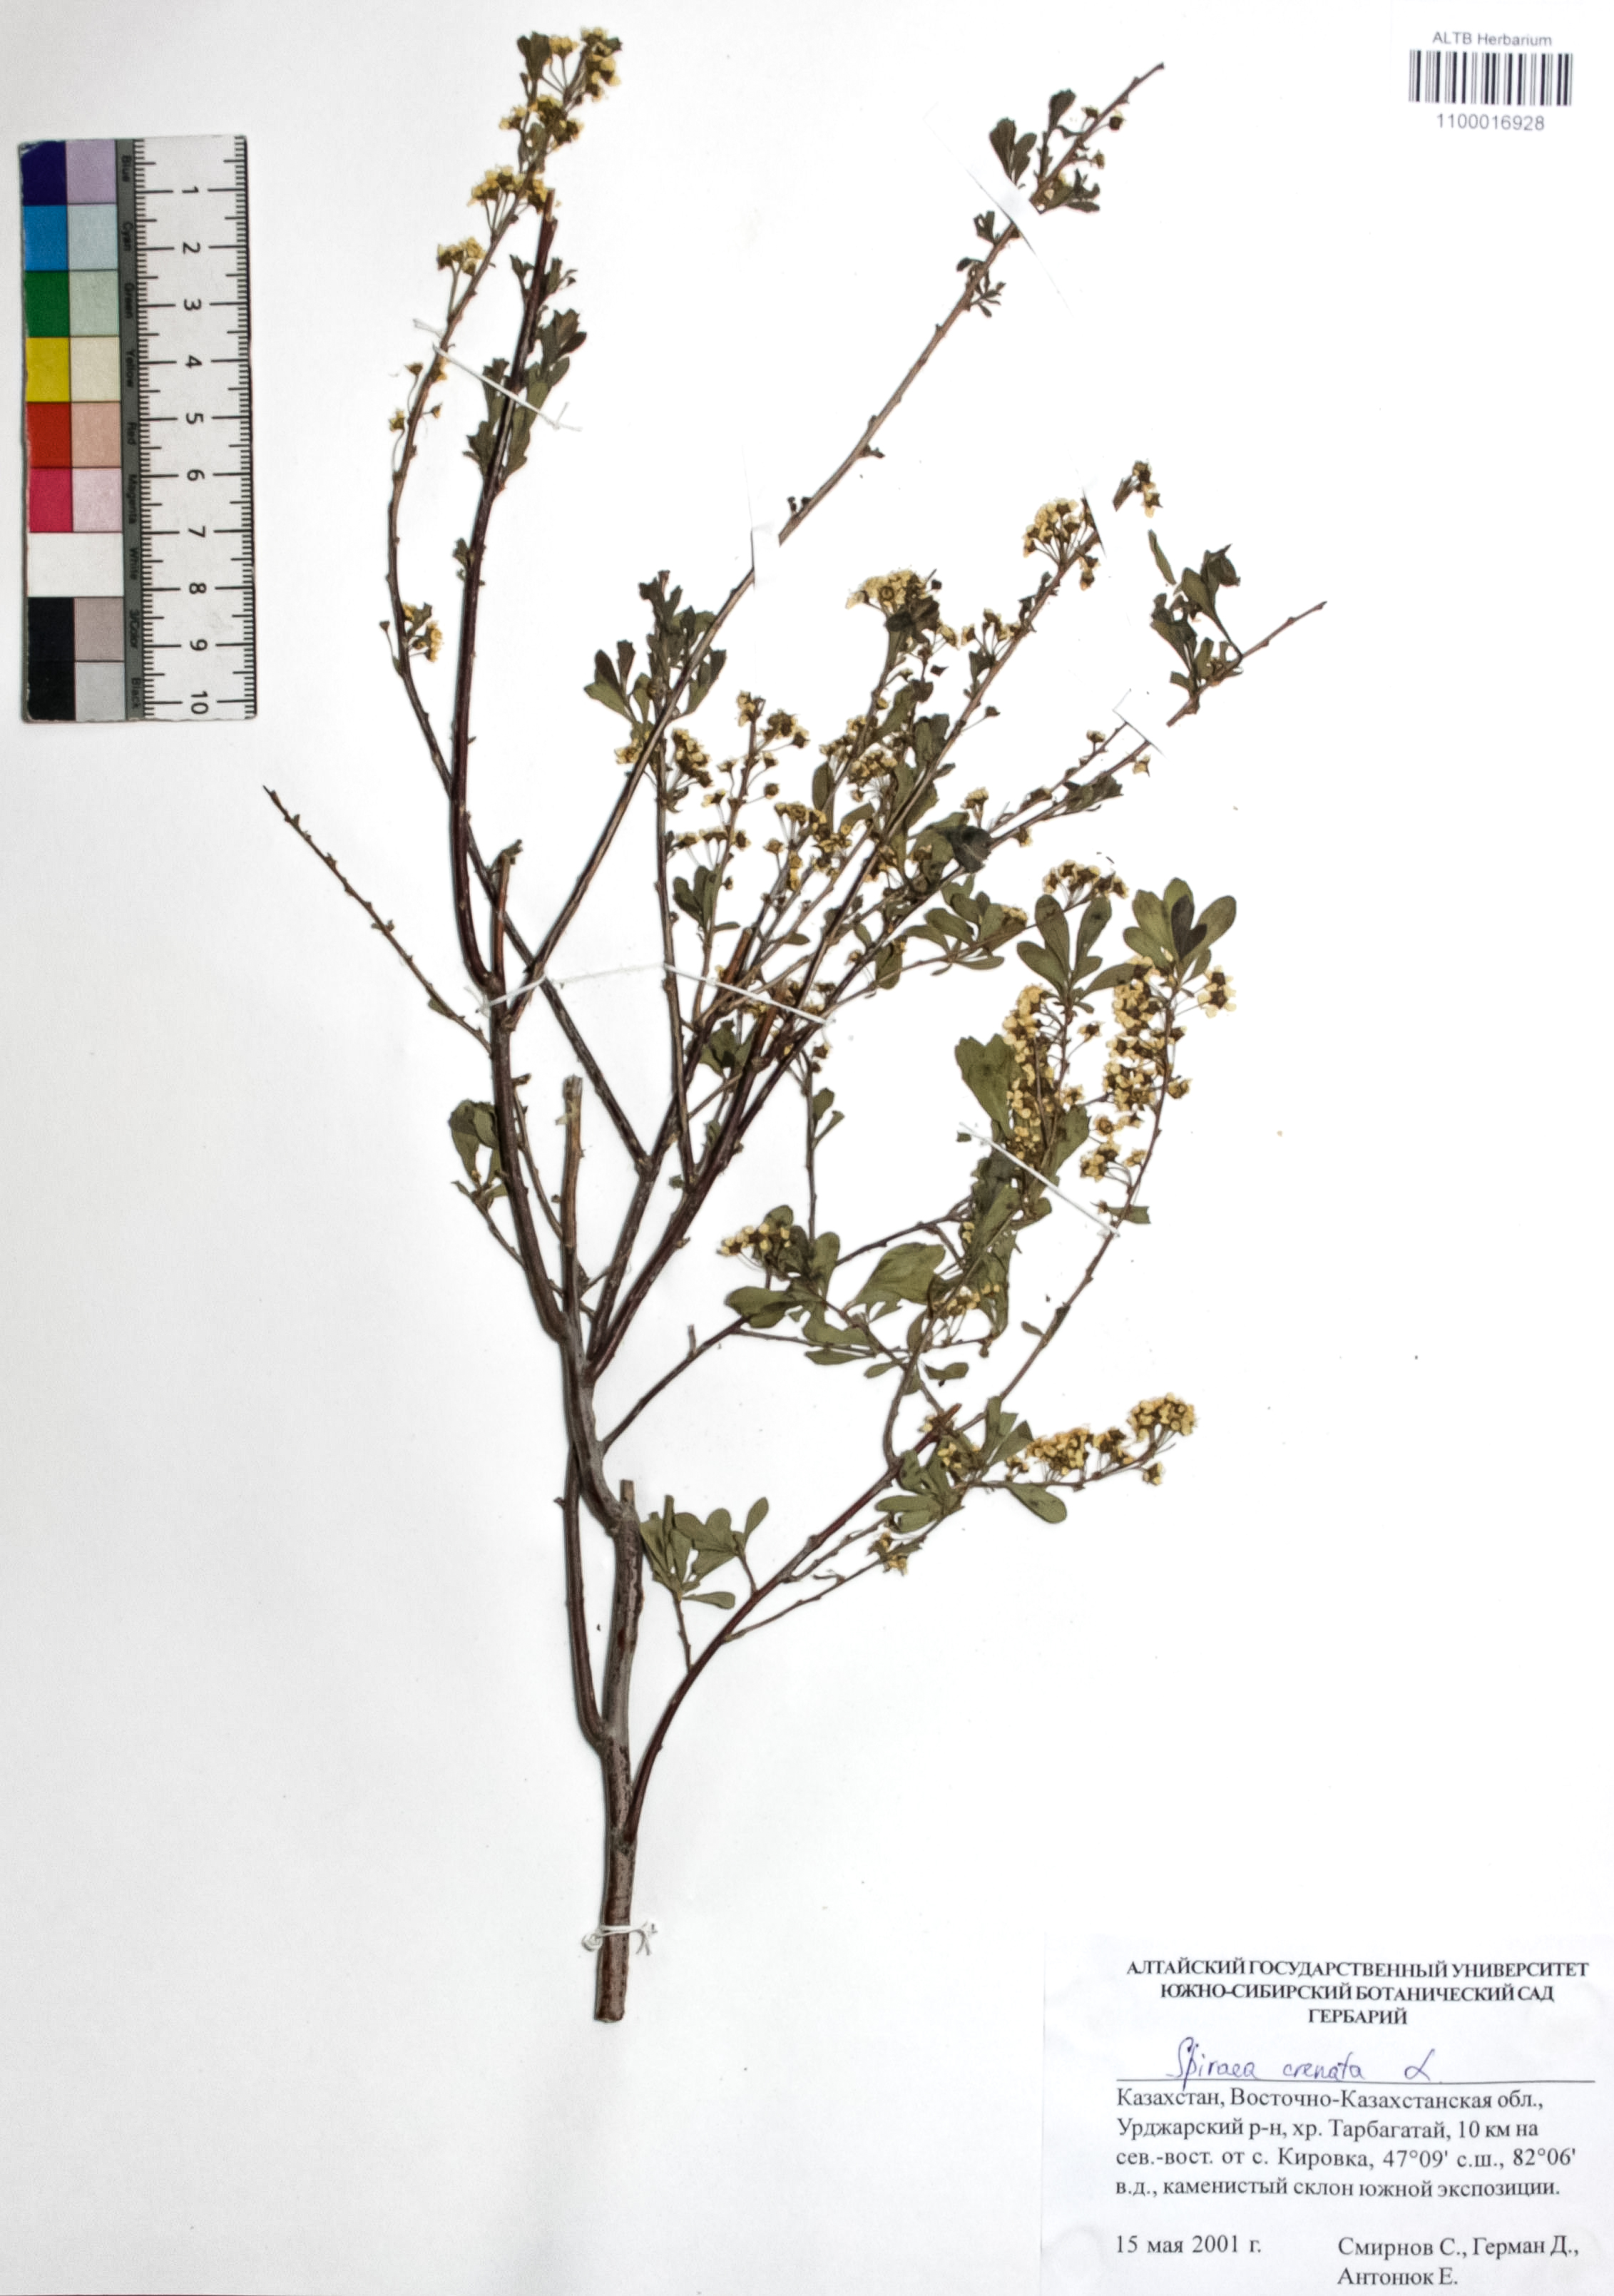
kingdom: Plantae
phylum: Tracheophyta
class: Magnoliopsida
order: Rosales
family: Rosaceae
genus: Spiraea
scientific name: Spiraea crenata
